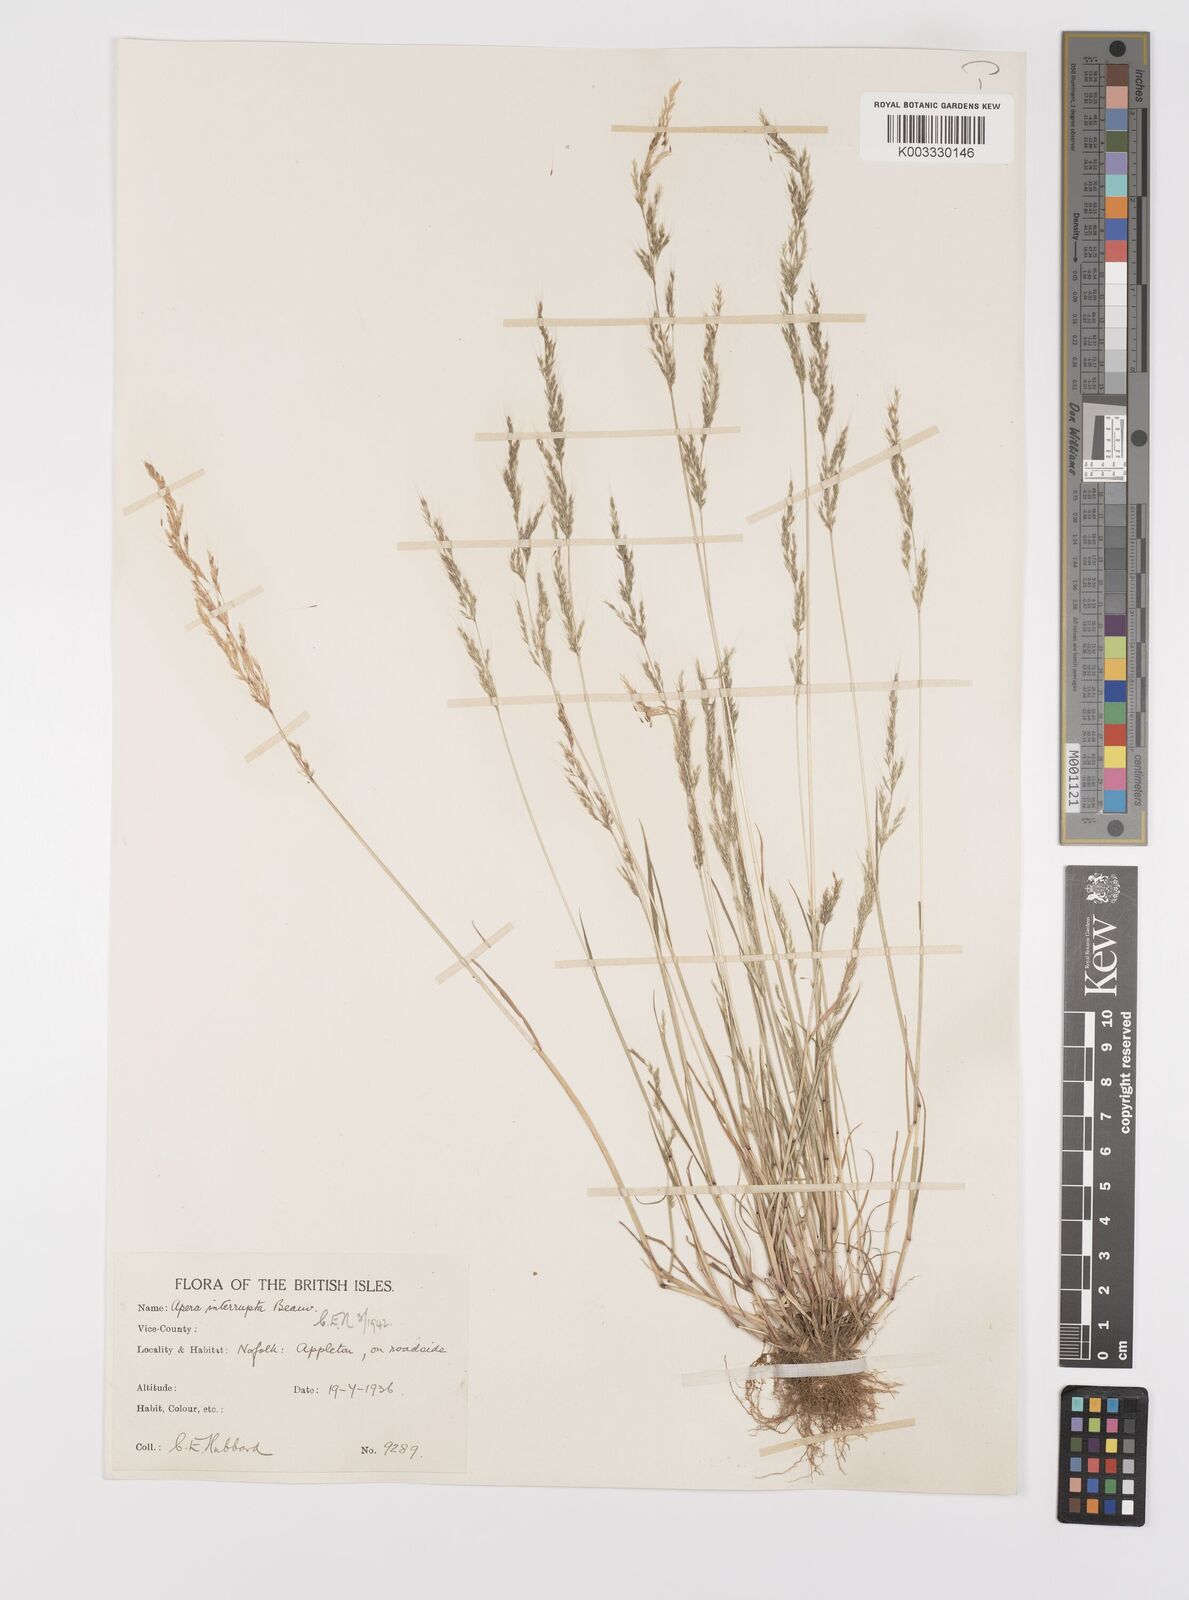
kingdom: Plantae
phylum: Tracheophyta
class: Liliopsida
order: Poales
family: Poaceae
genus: Apera
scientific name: Apera interrupta
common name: Dense silky-bent
